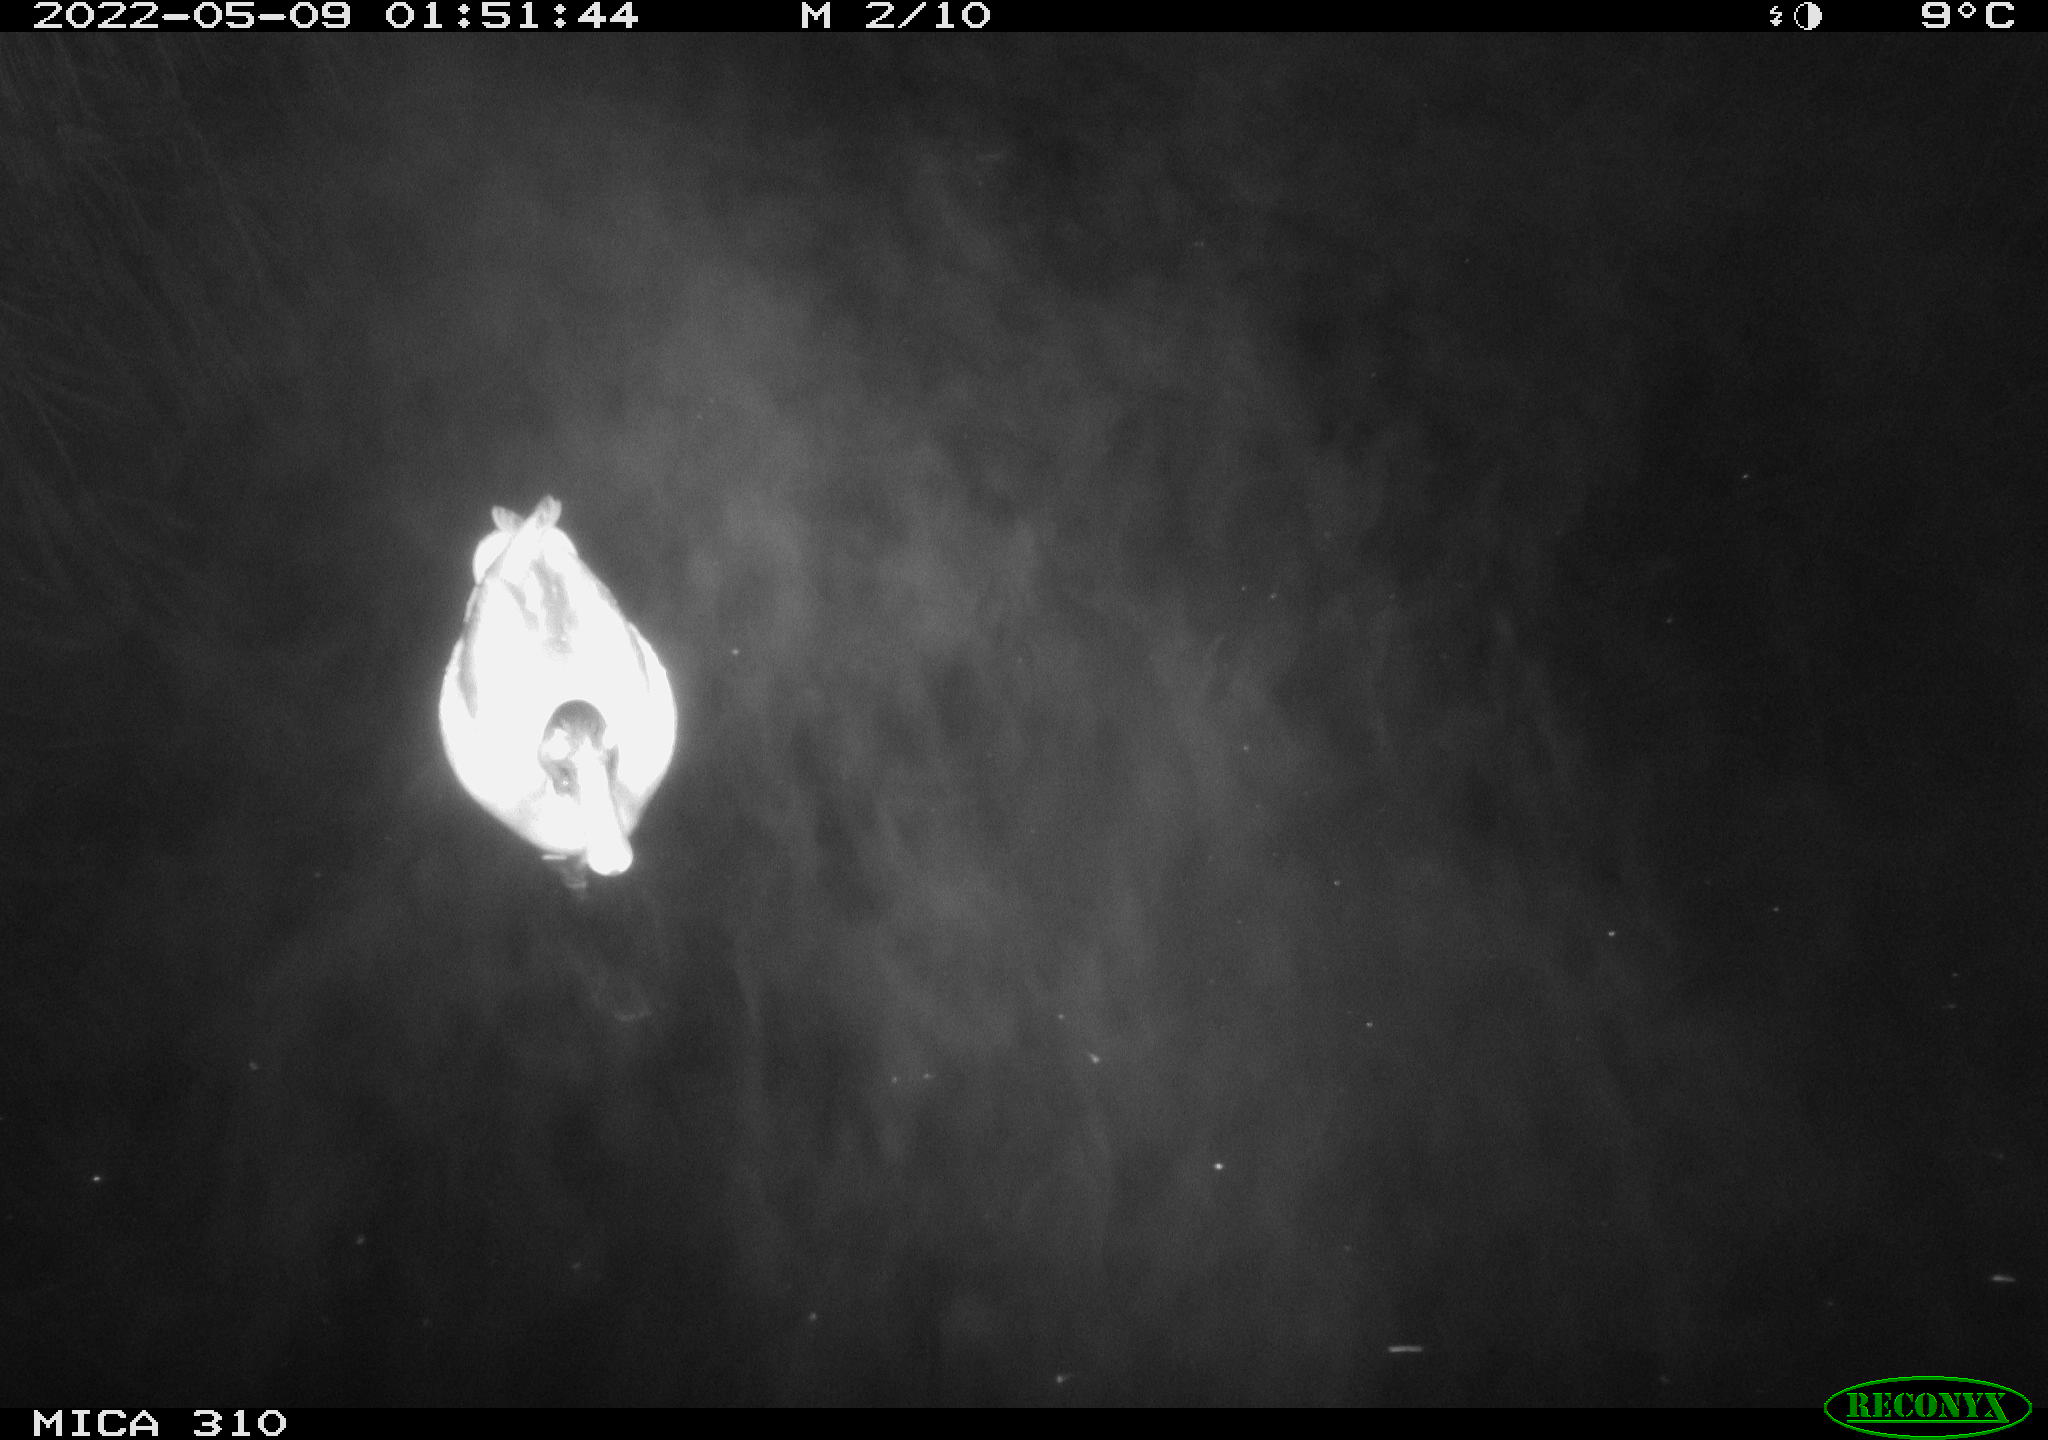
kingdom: Animalia
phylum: Chordata
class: Aves
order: Anseriformes
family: Anatidae
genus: Anas
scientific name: Anas platyrhynchos
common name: Mallard
